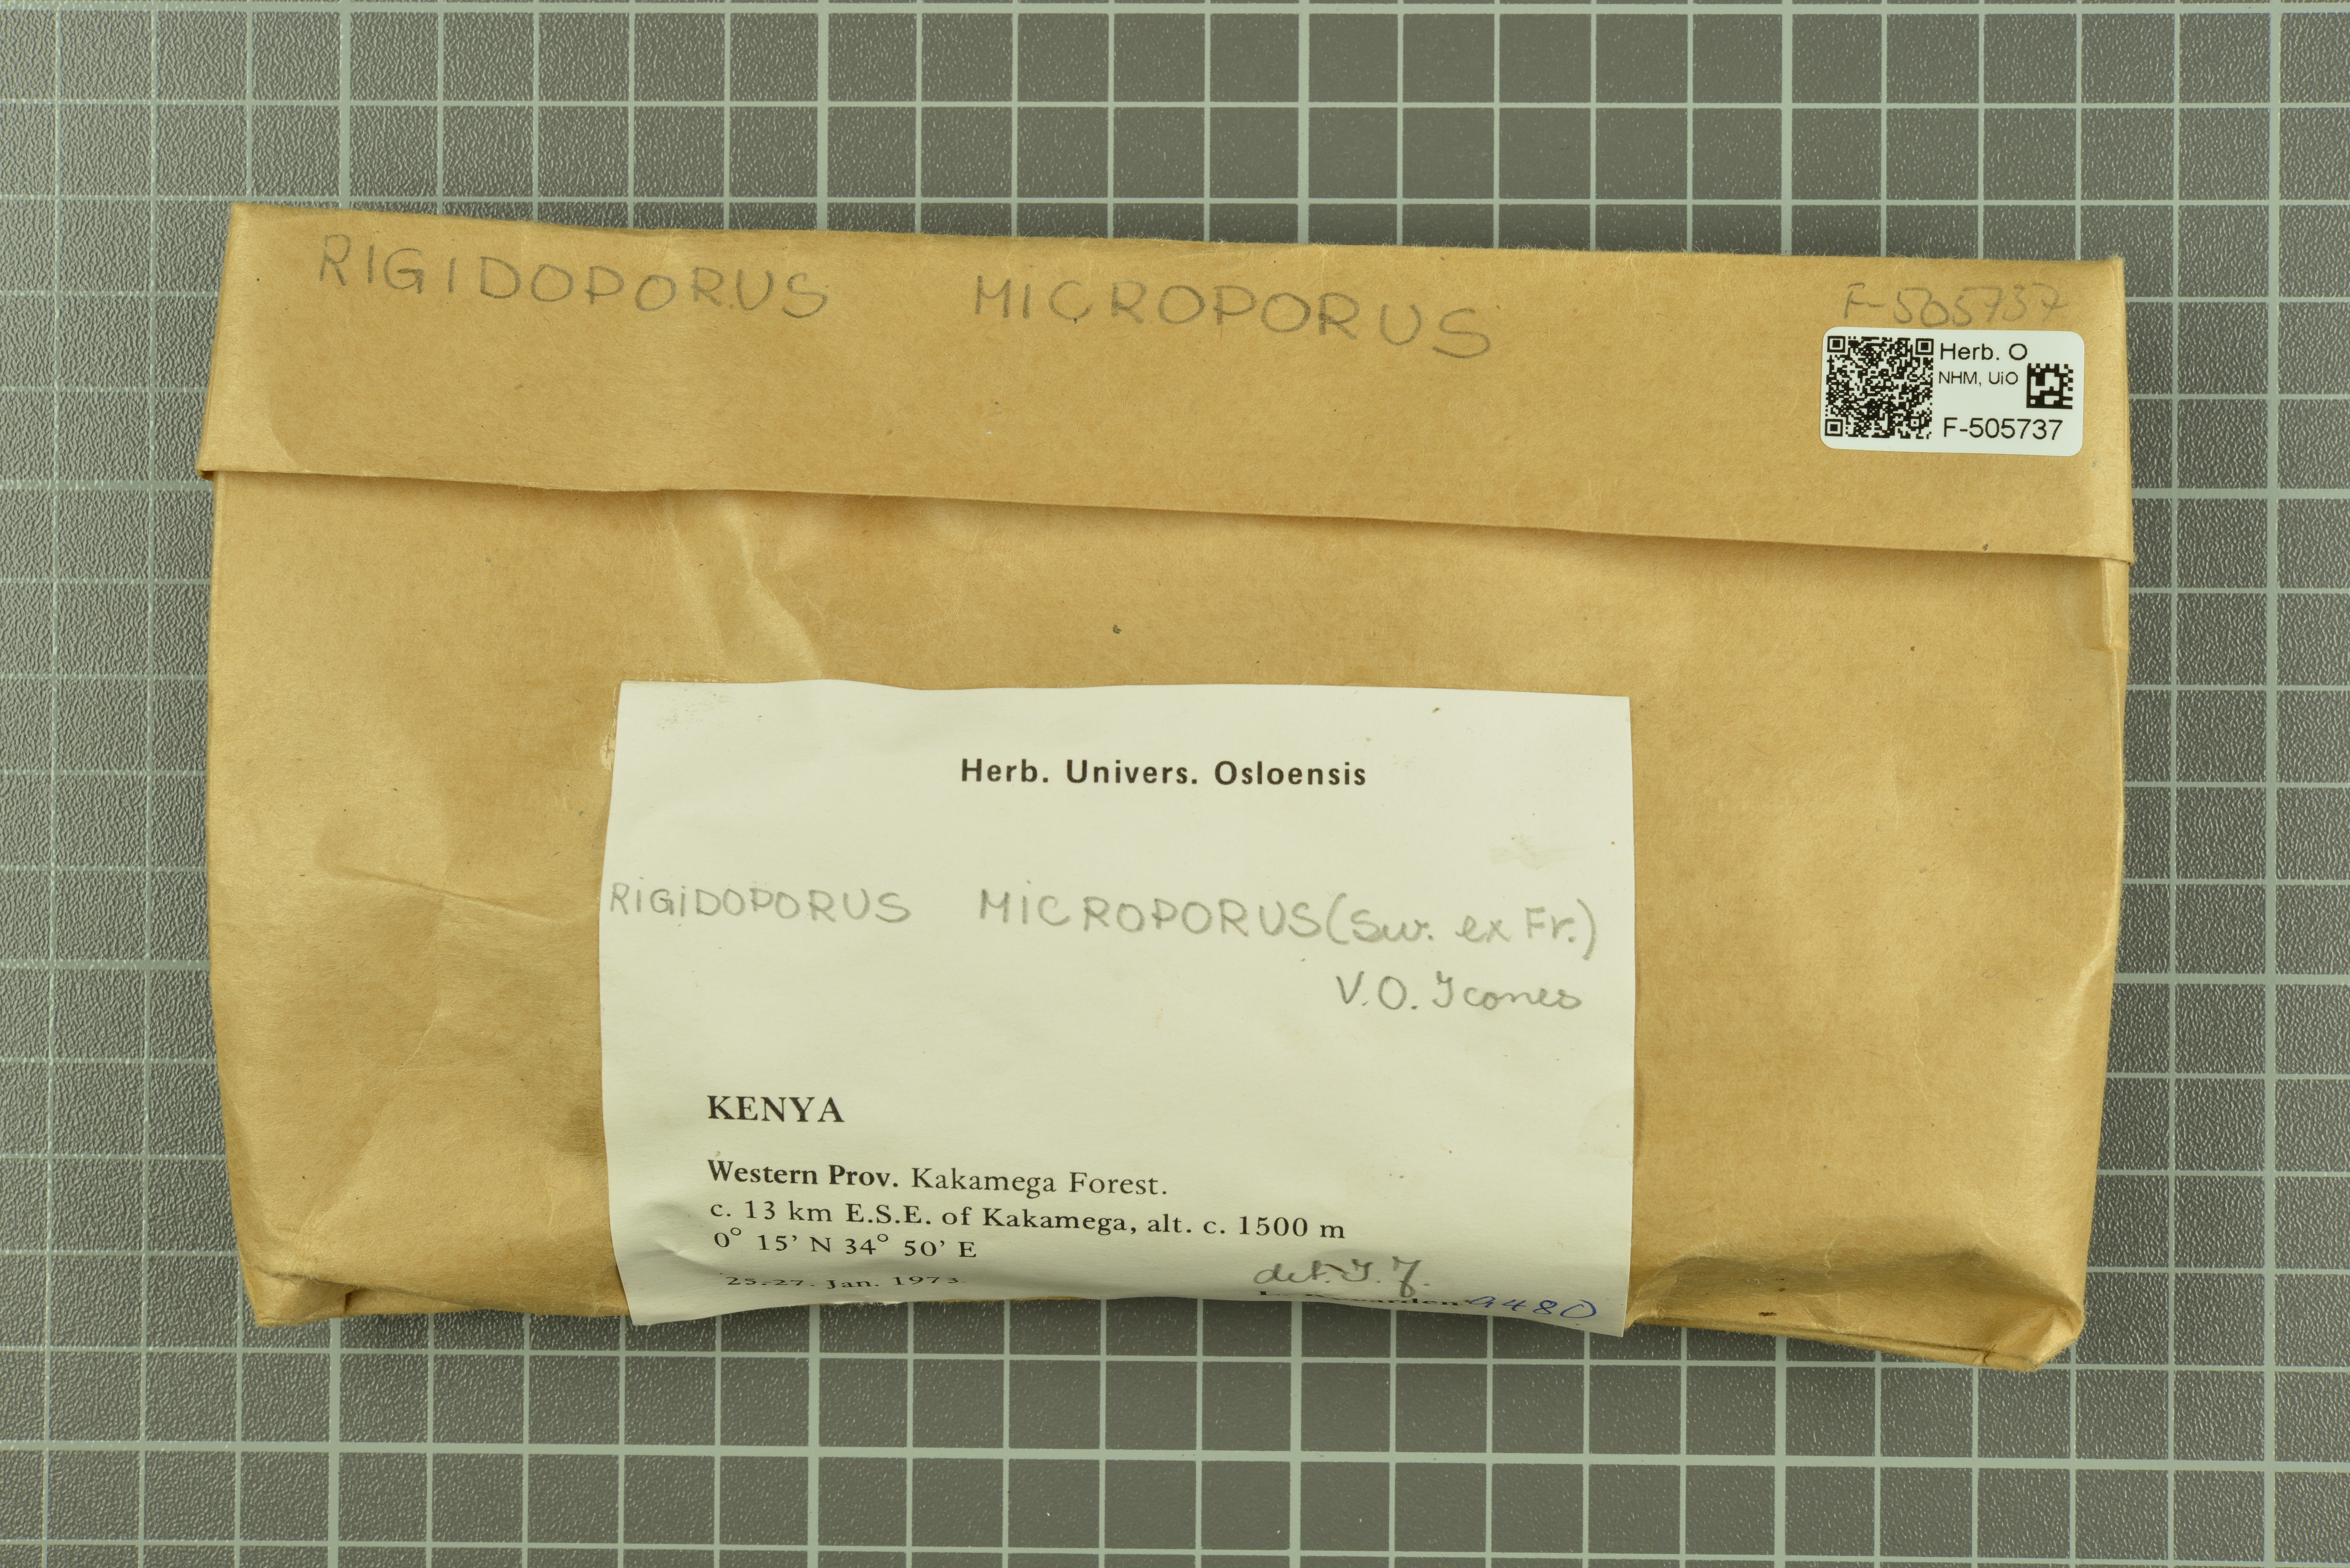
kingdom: Fungi
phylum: Basidiomycota
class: Agaricomycetes
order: Polyporales
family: Meripilaceae
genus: Rigidoporus
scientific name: Rigidoporus microporus
